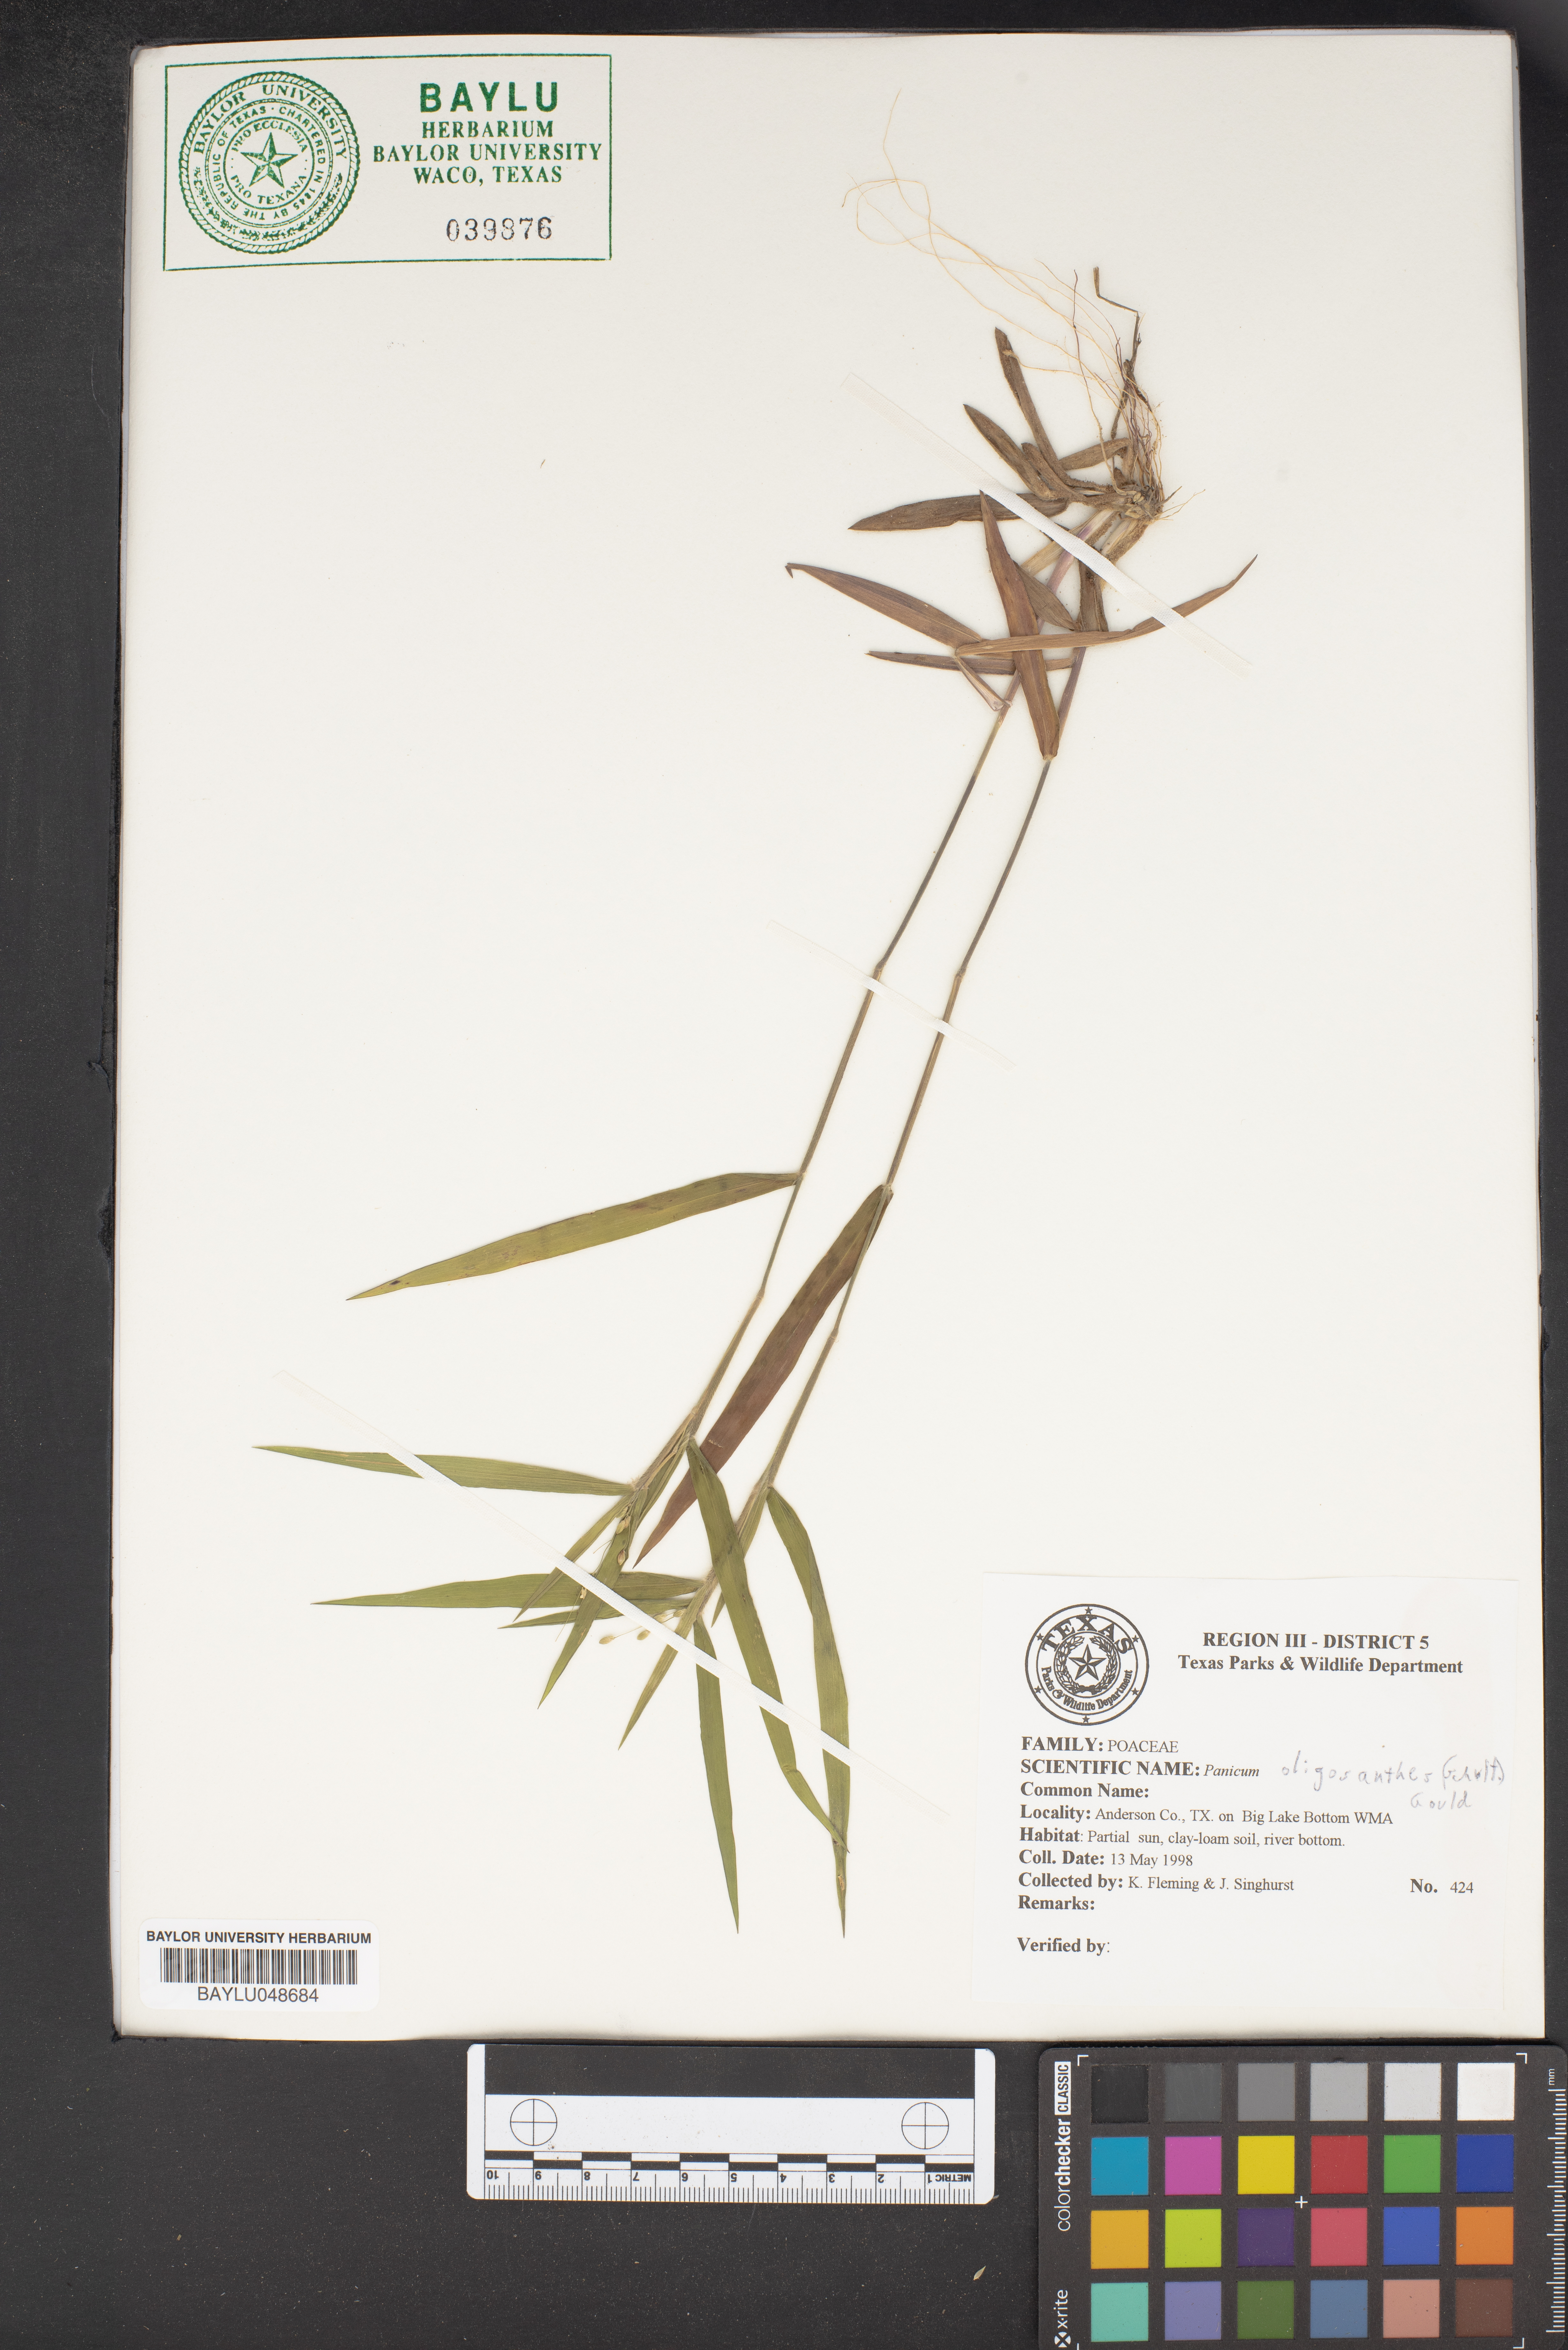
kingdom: Plantae
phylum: Tracheophyta
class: Liliopsida
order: Poales
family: Poaceae
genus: Dichanthelium
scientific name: Dichanthelium oligosanthes
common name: Few-anther obscuregrass
